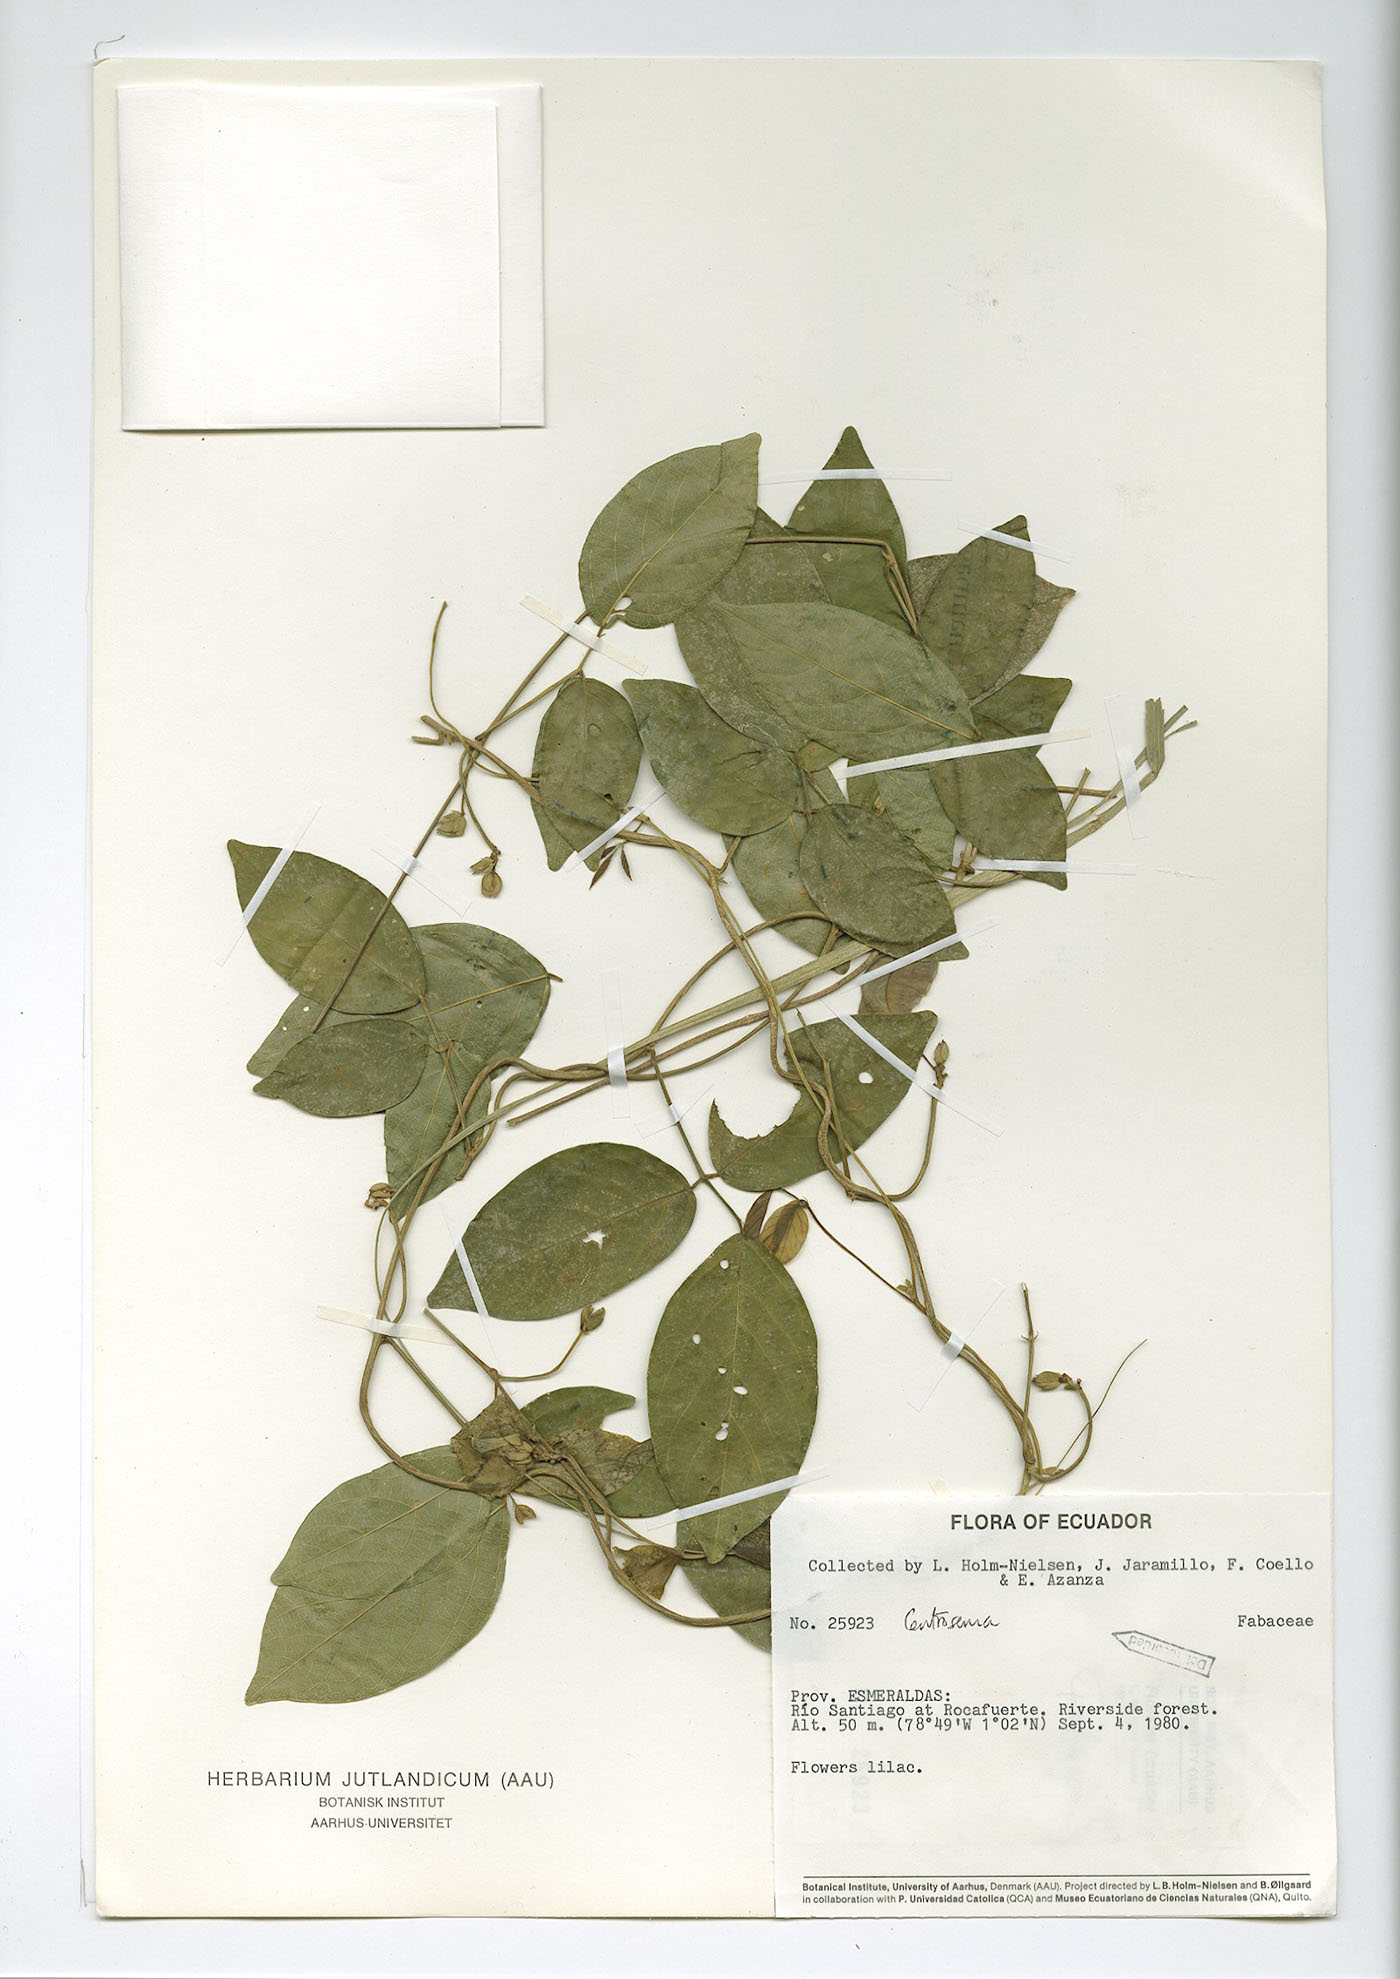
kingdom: Plantae
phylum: Tracheophyta
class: Magnoliopsida
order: Fabales
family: Fabaceae
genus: Centrosema
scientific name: Centrosema molle
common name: Soft butterfly pea
